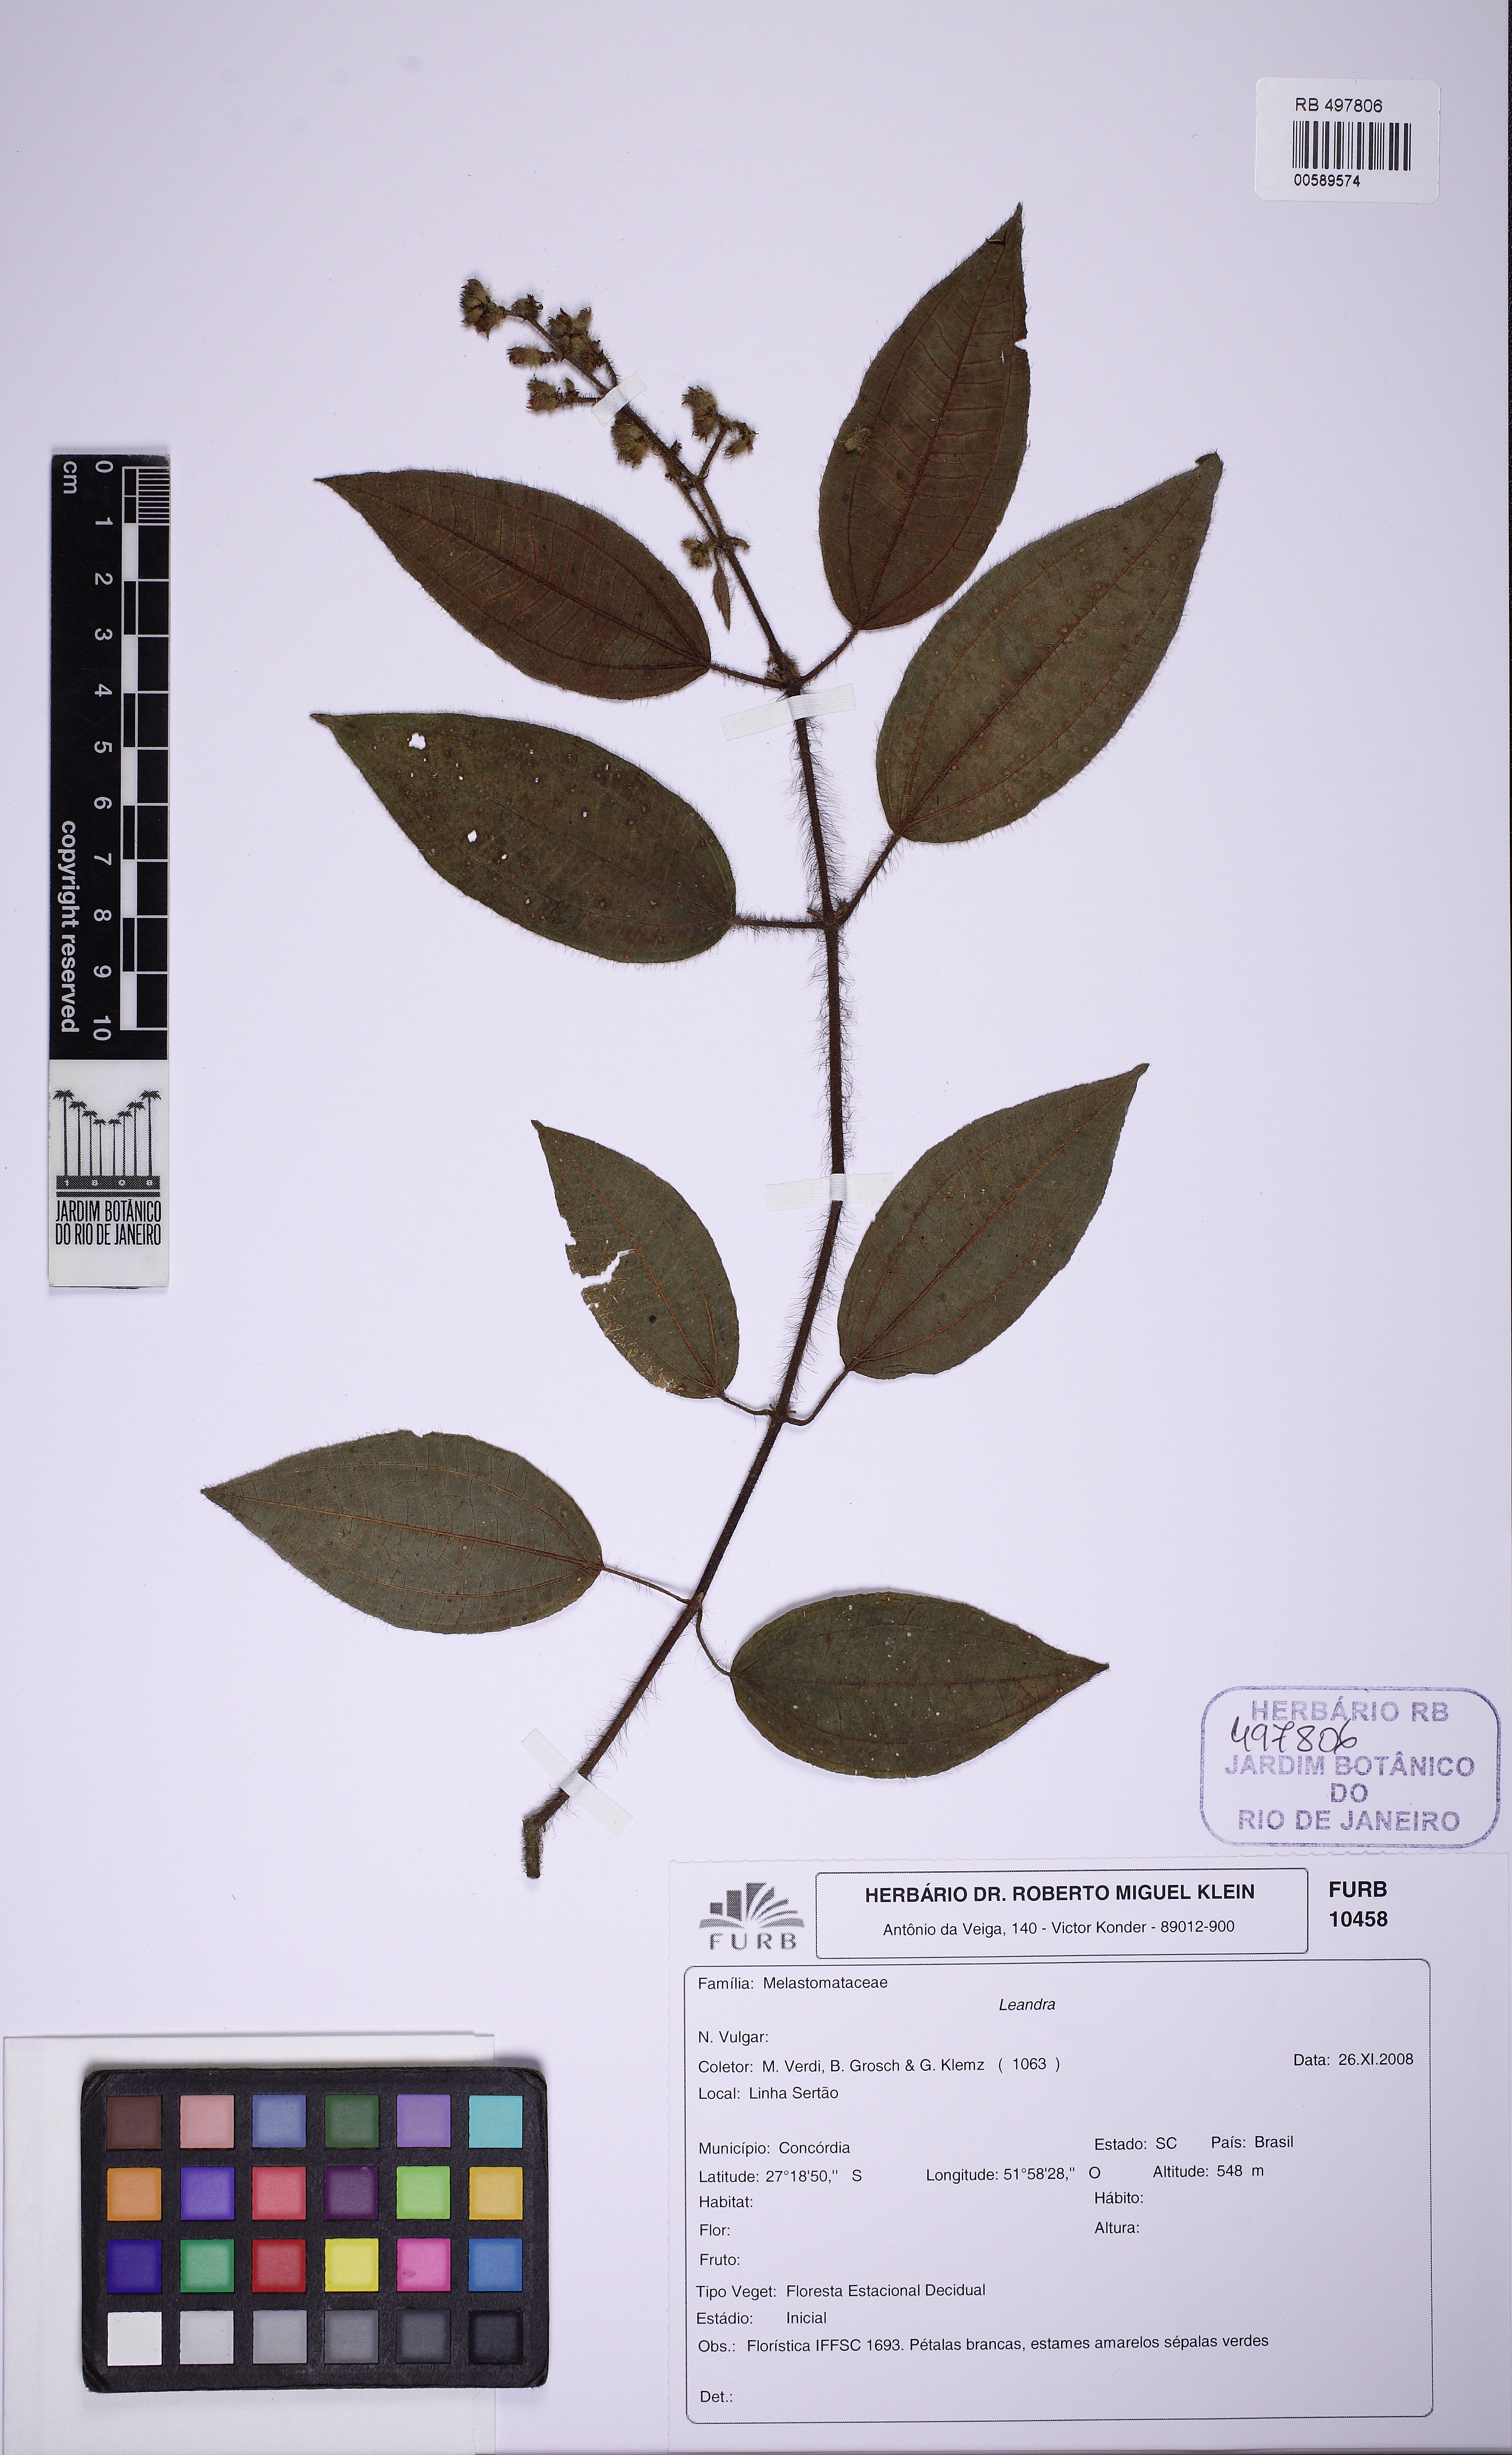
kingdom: Plantae
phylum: Tracheophyta
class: Magnoliopsida
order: Myrtales
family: Melastomataceae
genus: Miconia
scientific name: Miconia
